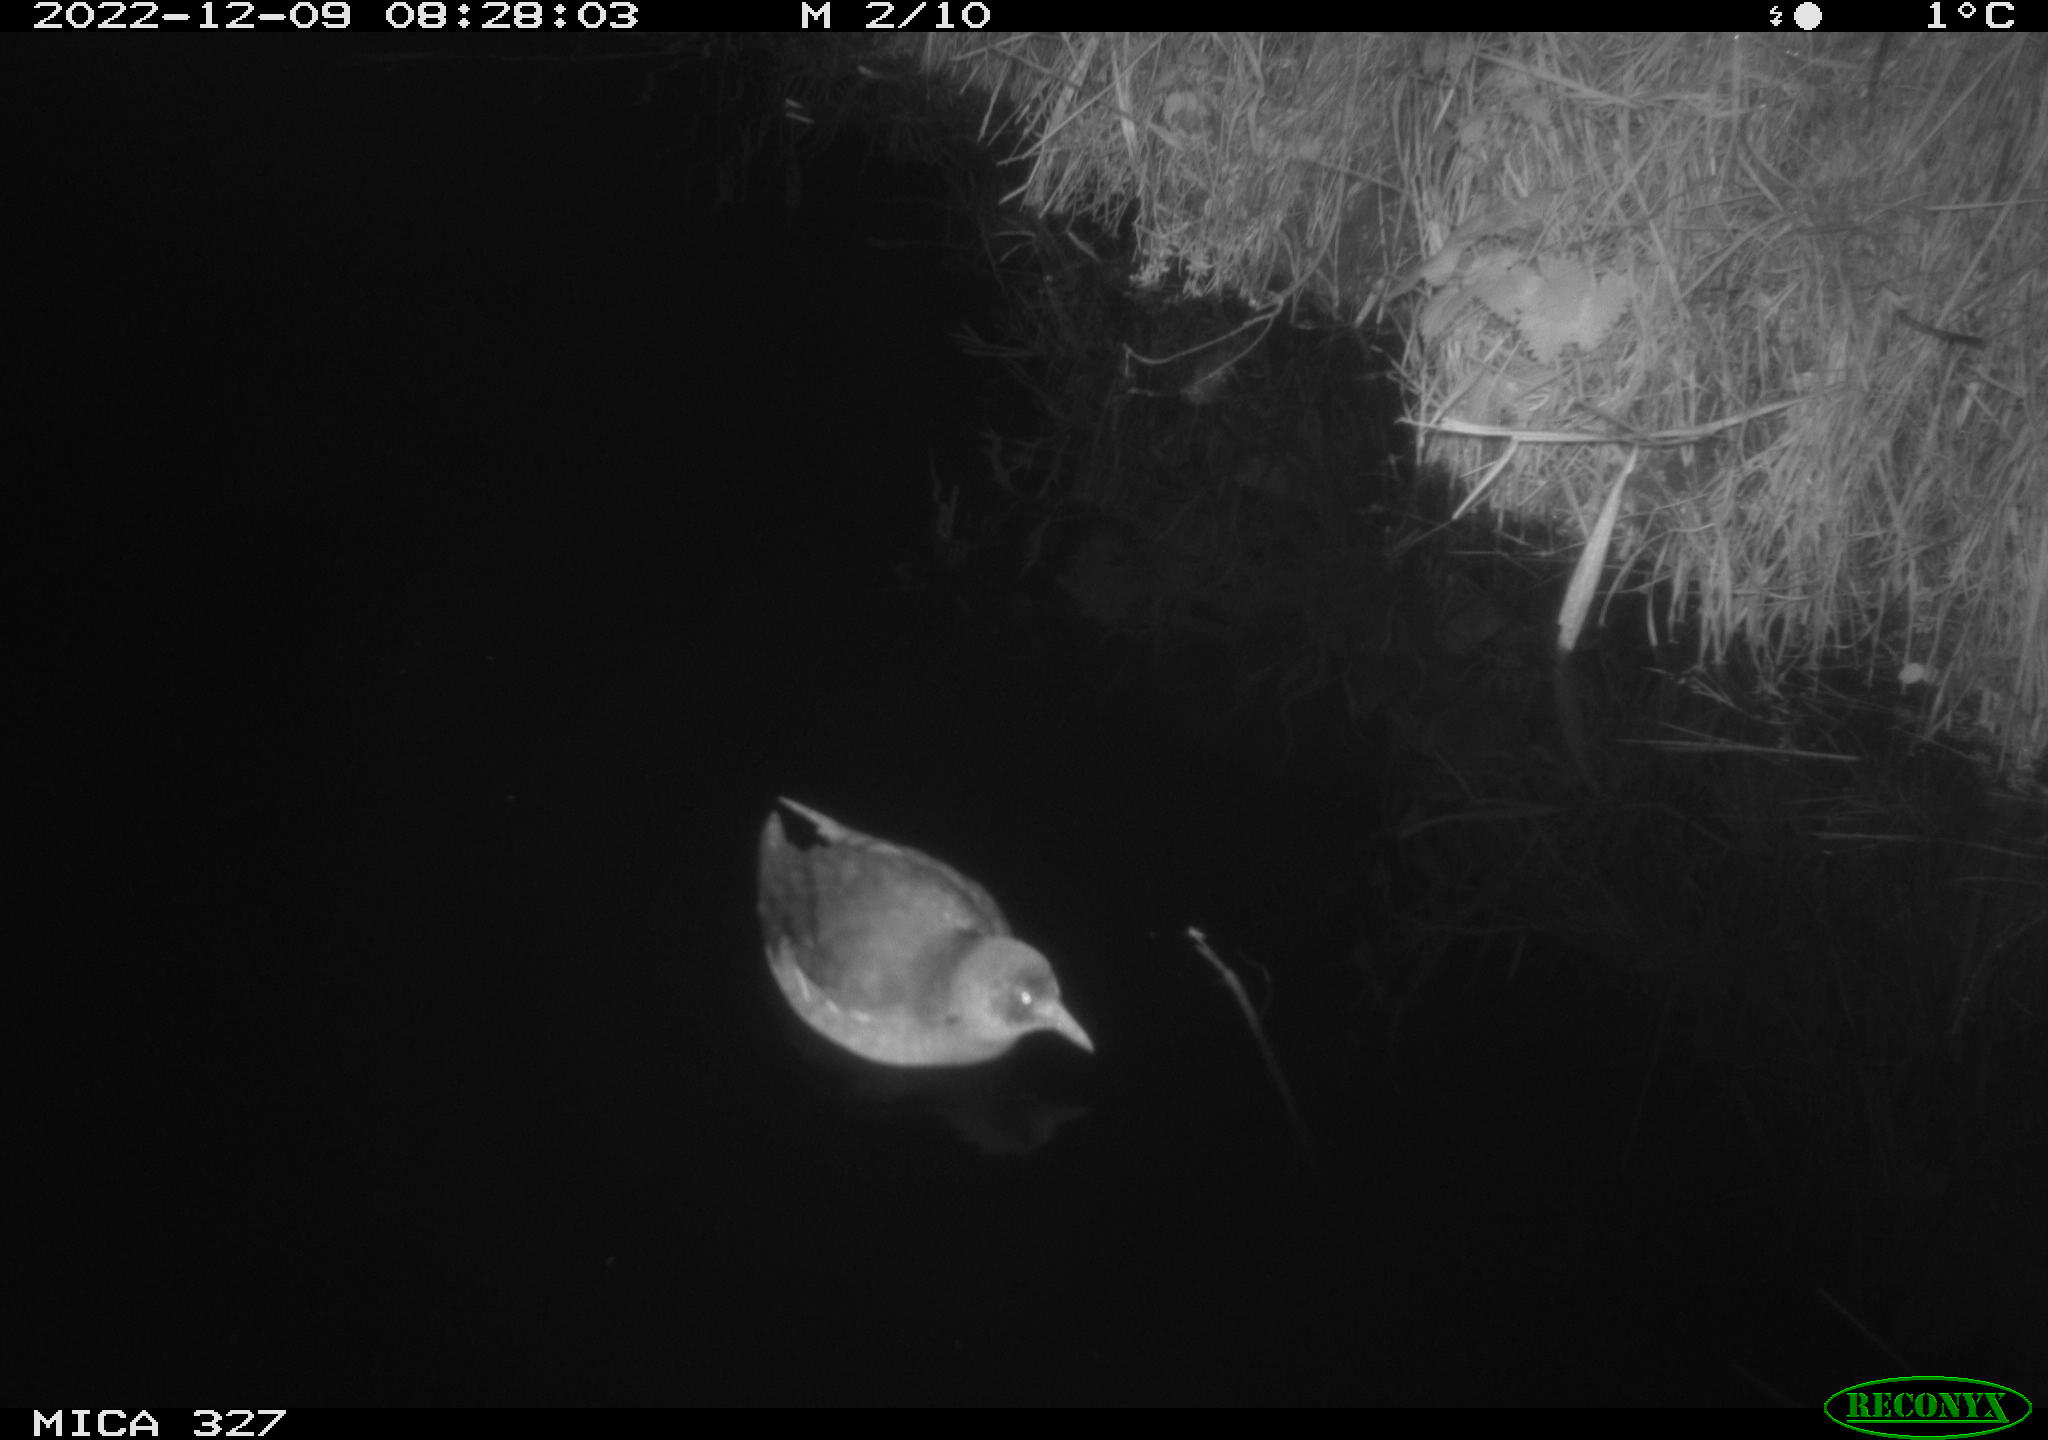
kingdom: Animalia
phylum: Chordata
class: Aves
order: Gruiformes
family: Rallidae
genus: Gallinula
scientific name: Gallinula chloropus
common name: Common moorhen
